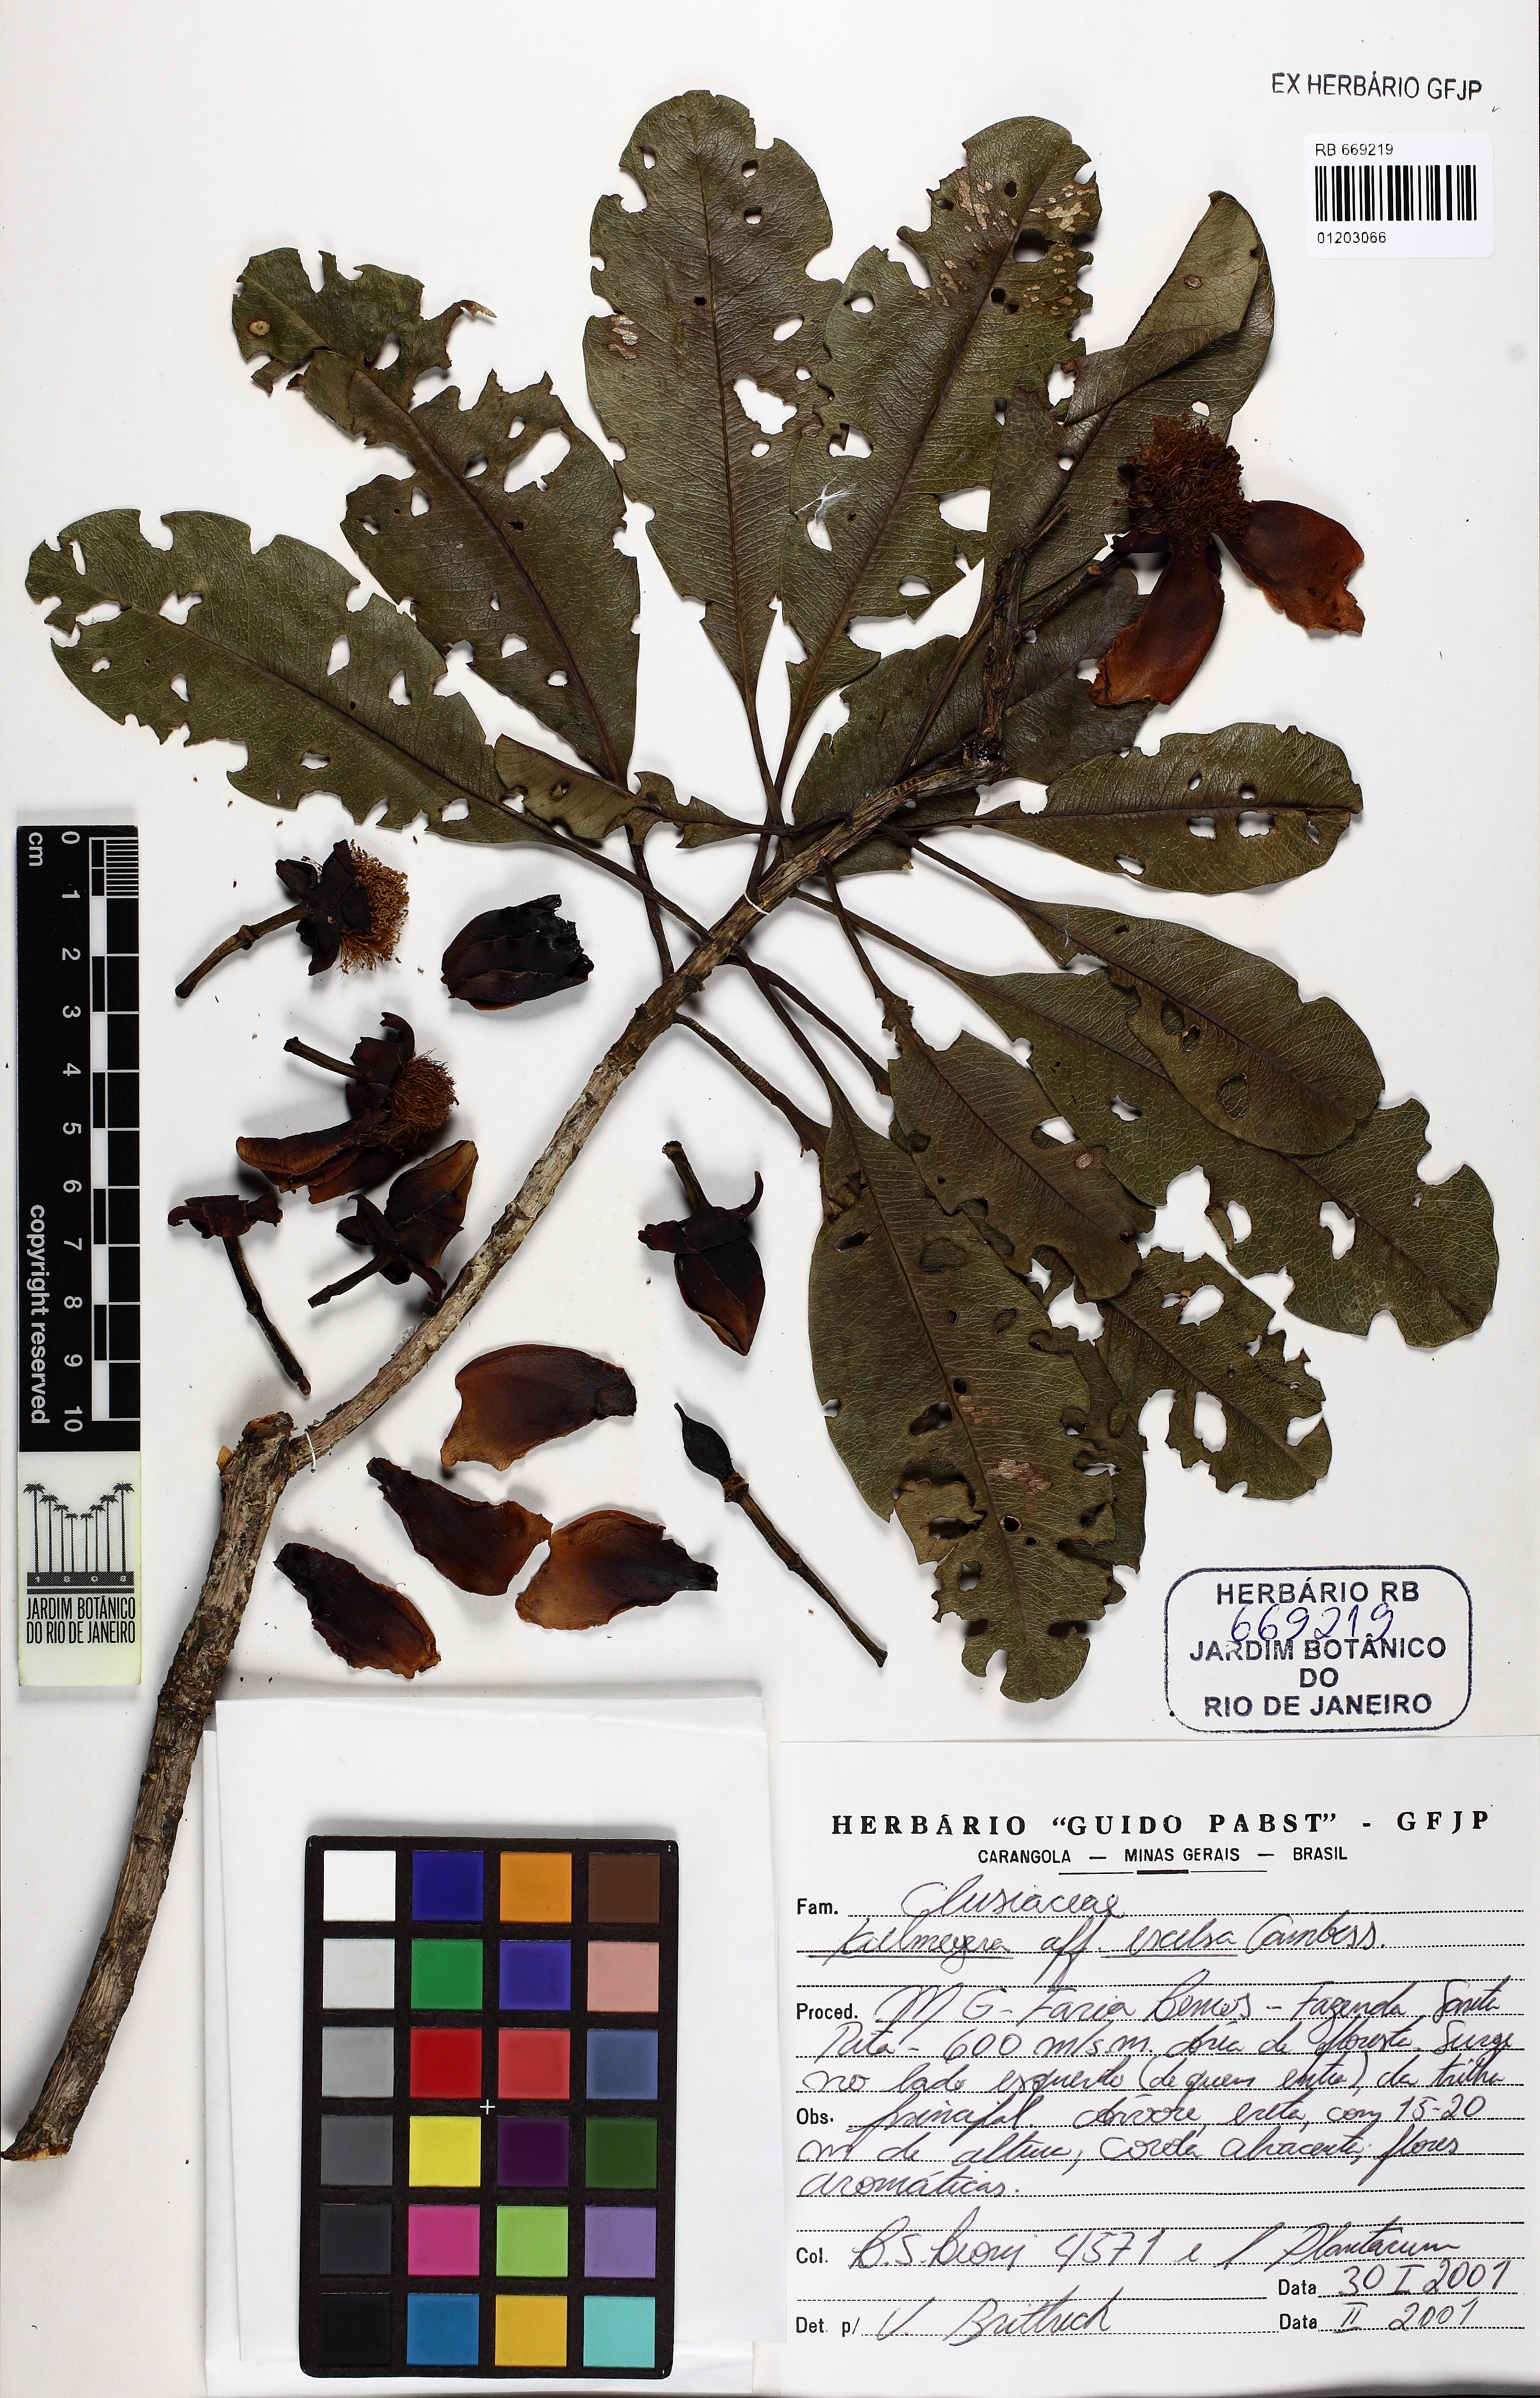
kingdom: Plantae
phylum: Tracheophyta
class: Magnoliopsida
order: Malpighiales
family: Calophyllaceae
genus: Kielmeyera
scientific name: Kielmeyera excelsa
